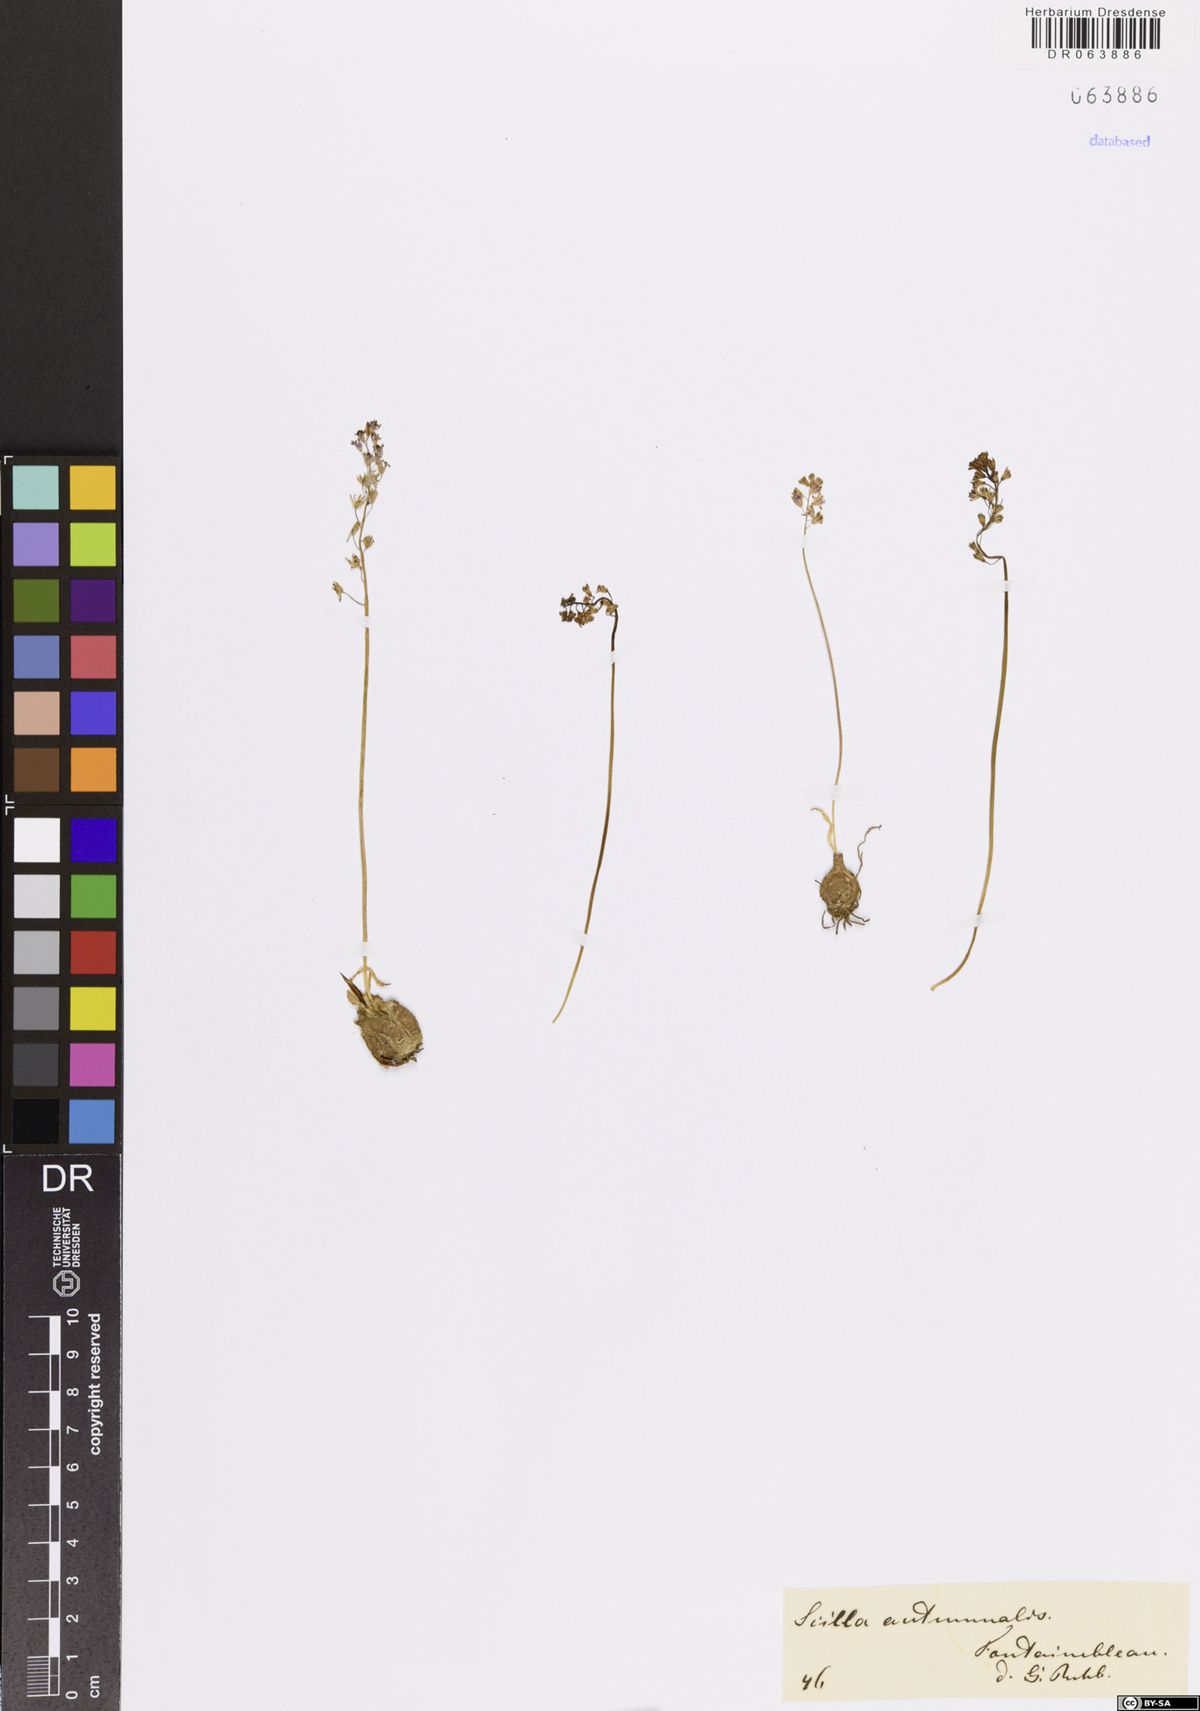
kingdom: Plantae
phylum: Tracheophyta
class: Liliopsida
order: Asparagales
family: Asparagaceae
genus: Prospero
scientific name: Prospero autumnale
